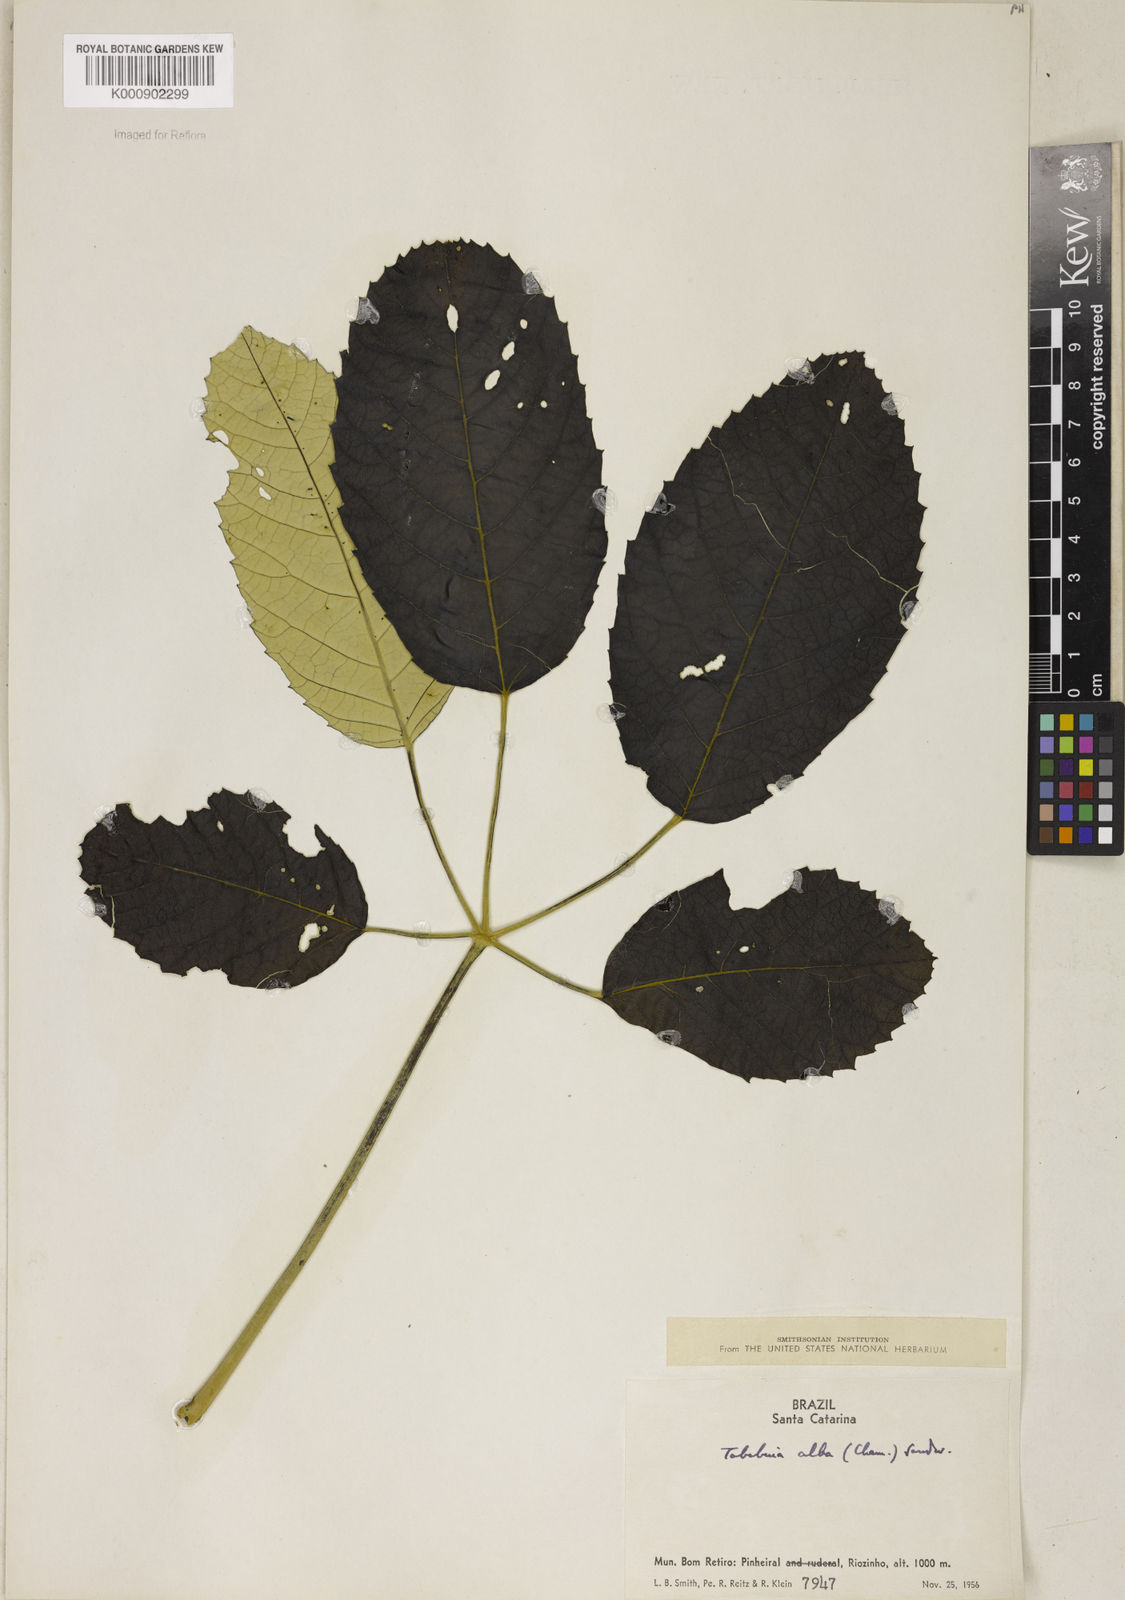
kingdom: Plantae
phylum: Tracheophyta
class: Magnoliopsida
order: Lamiales
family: Bignoniaceae
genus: Handroanthus
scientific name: Handroanthus albus
